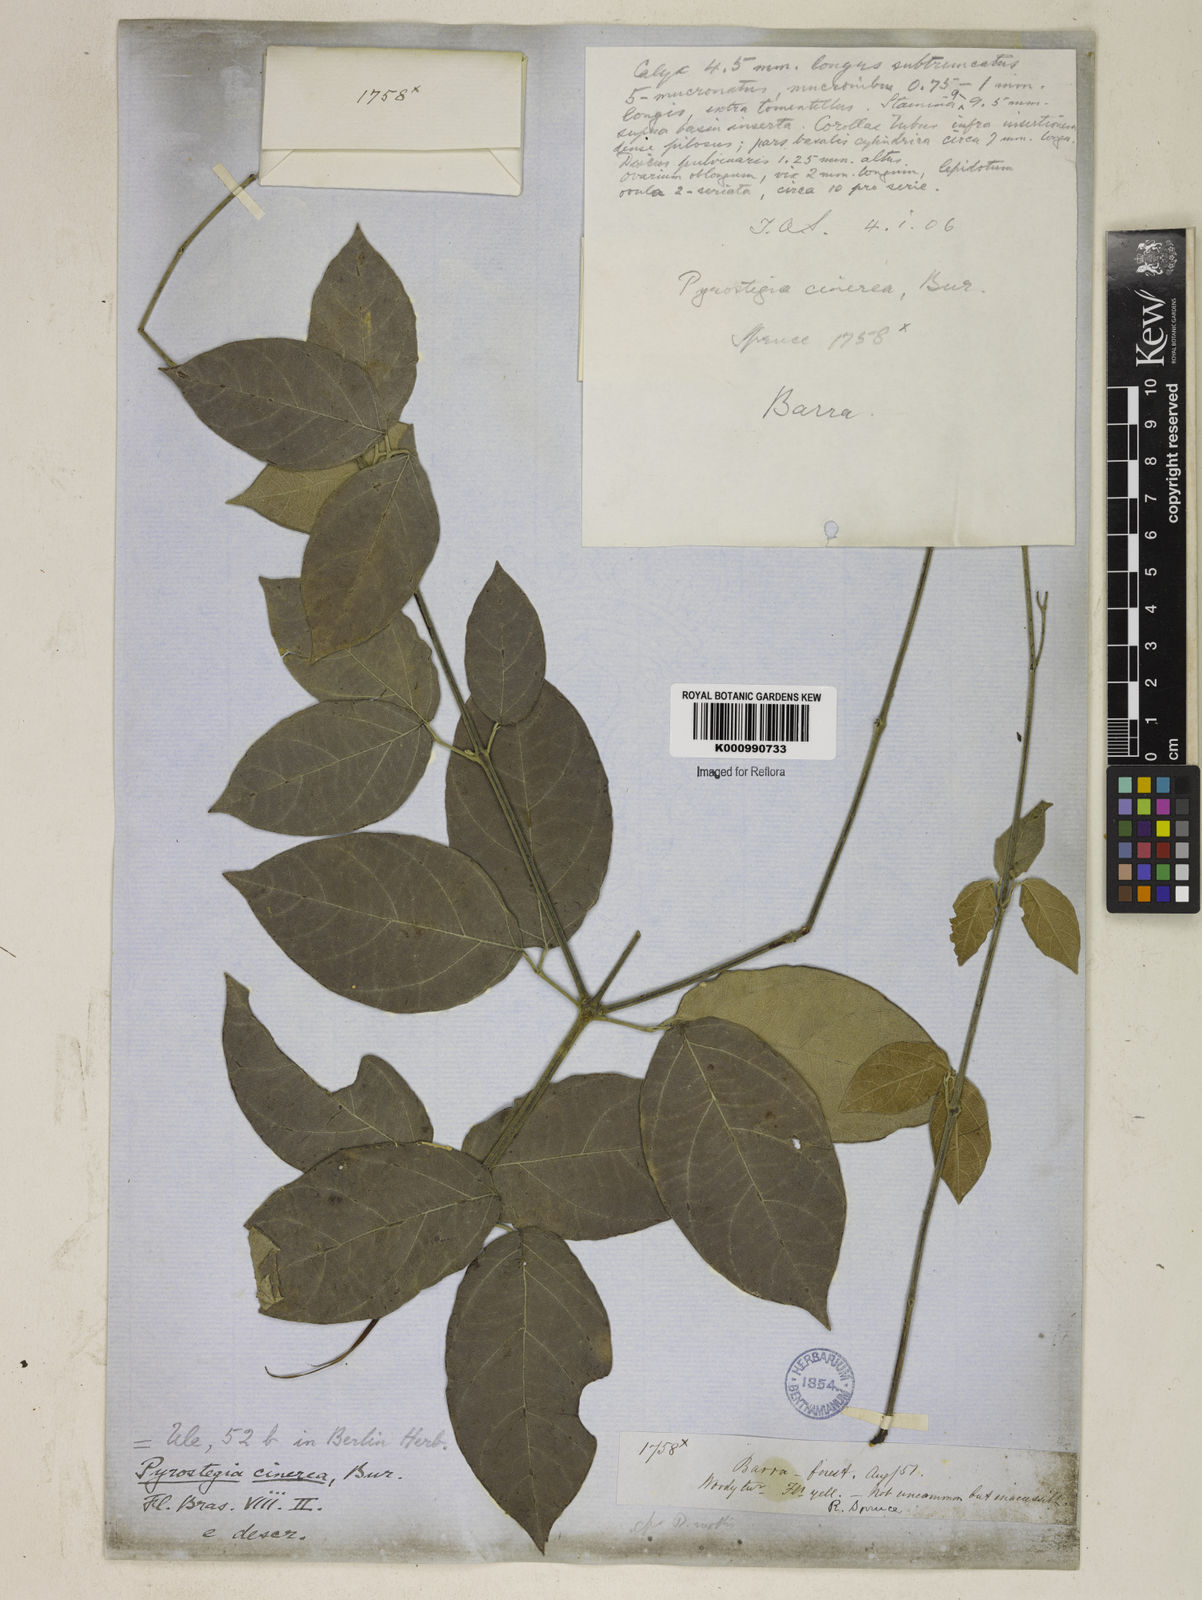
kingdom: Plantae
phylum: Tracheophyta
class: Magnoliopsida
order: Lamiales
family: Bignoniaceae
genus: Pyrostegia
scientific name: Pyrostegia
